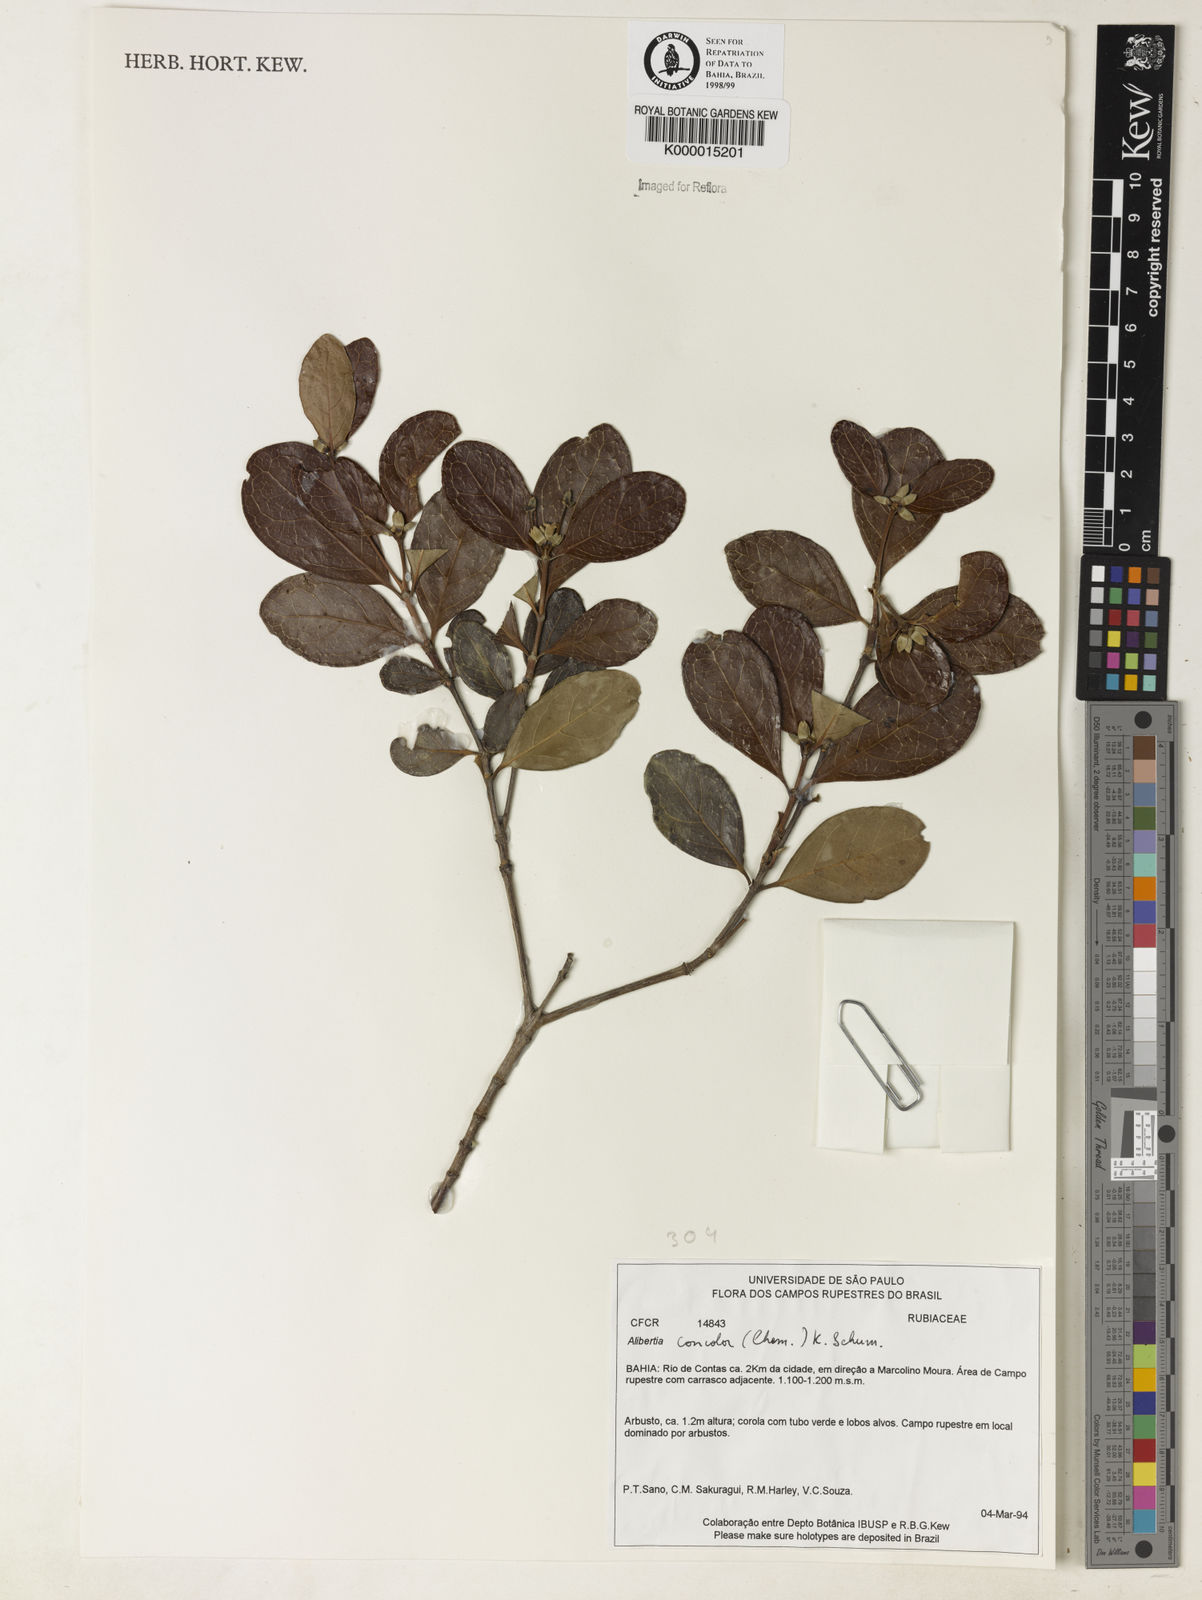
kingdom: Plantae
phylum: Tracheophyta
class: Magnoliopsida
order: Gentianales
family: Rubiaceae
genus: Cordiera
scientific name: Cordiera concolor
